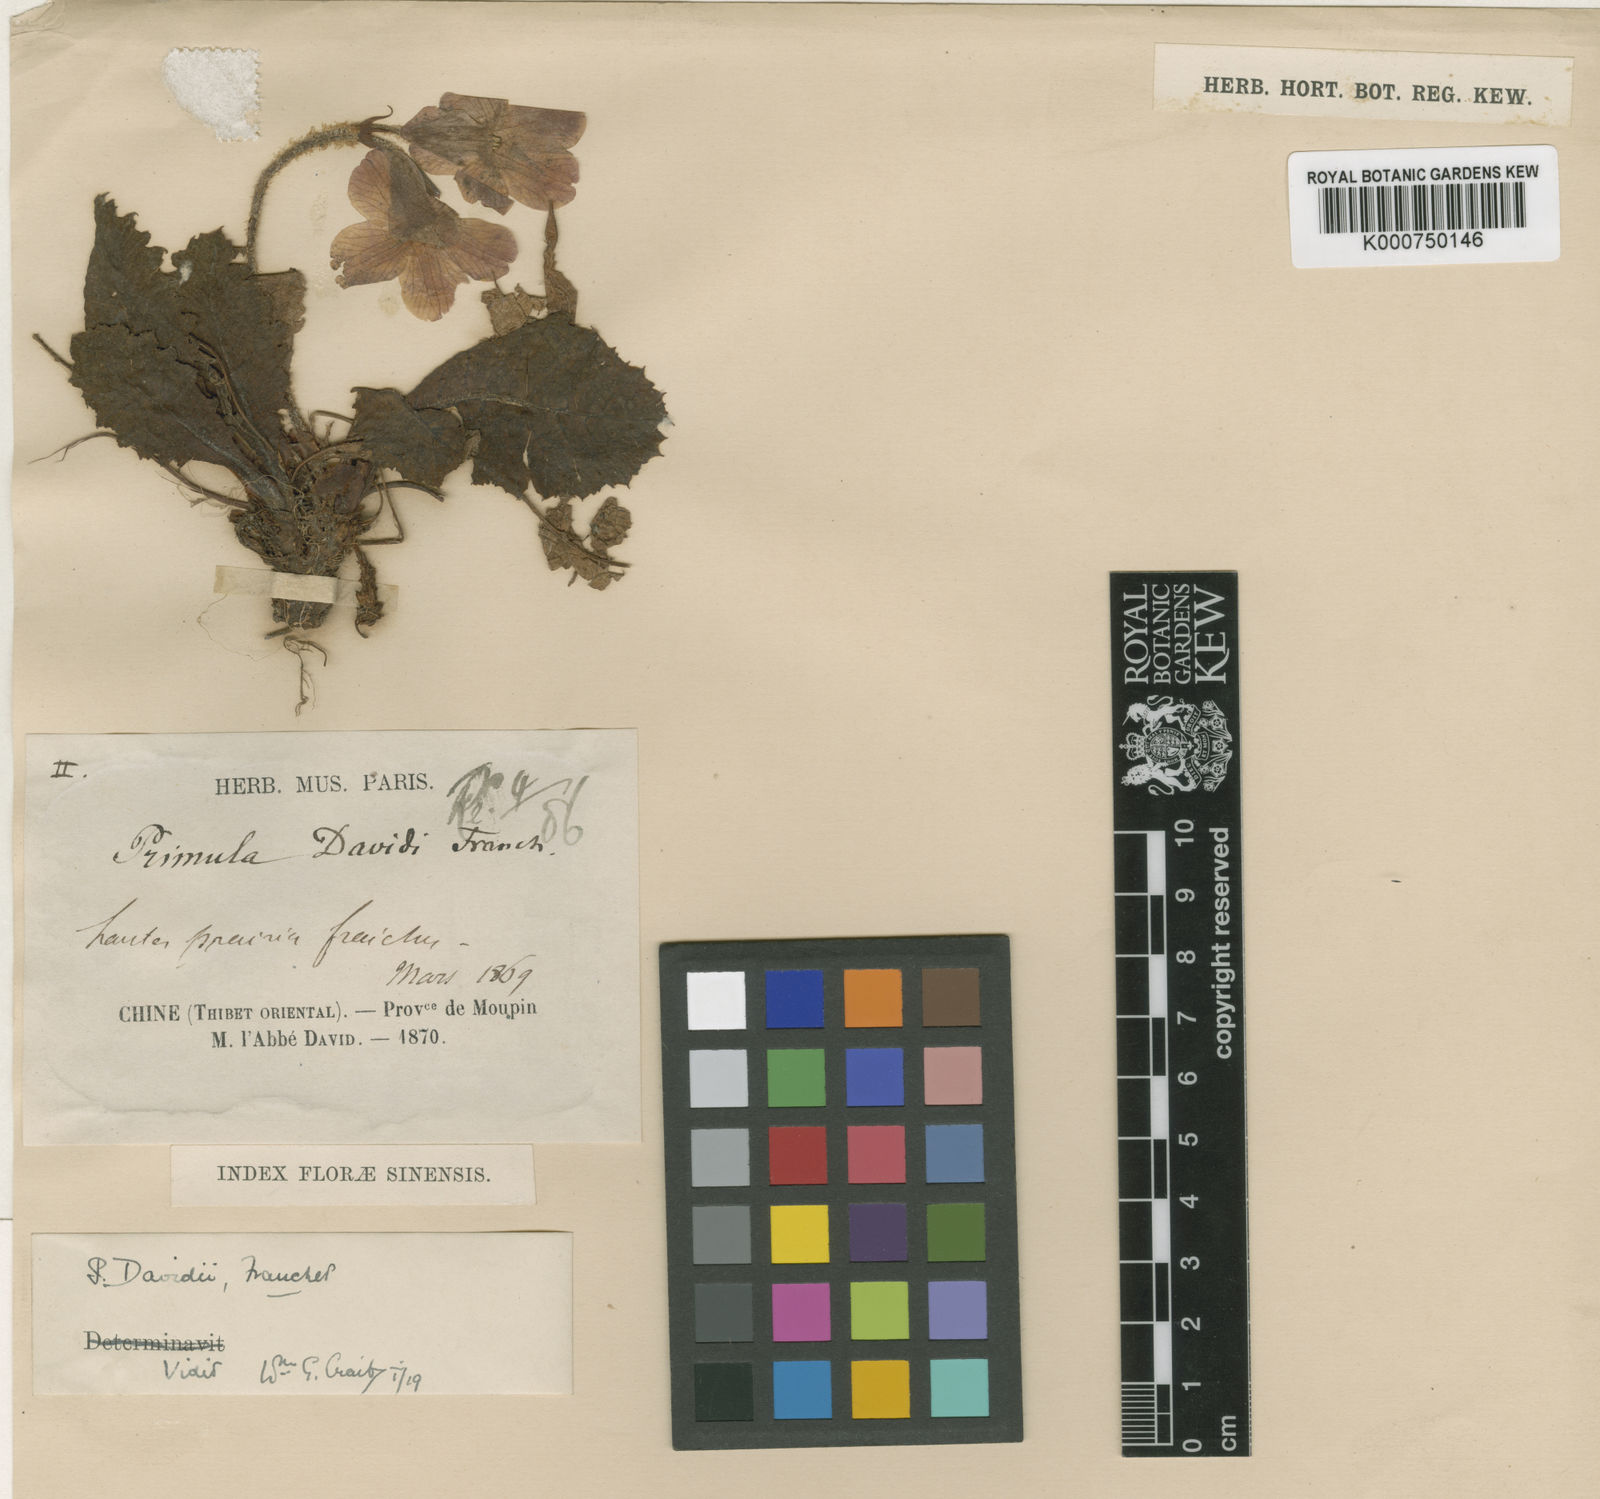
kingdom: Plantae
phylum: Tracheophyta
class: Magnoliopsida
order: Ericales
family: Primulaceae
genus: Primula
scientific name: Primula
